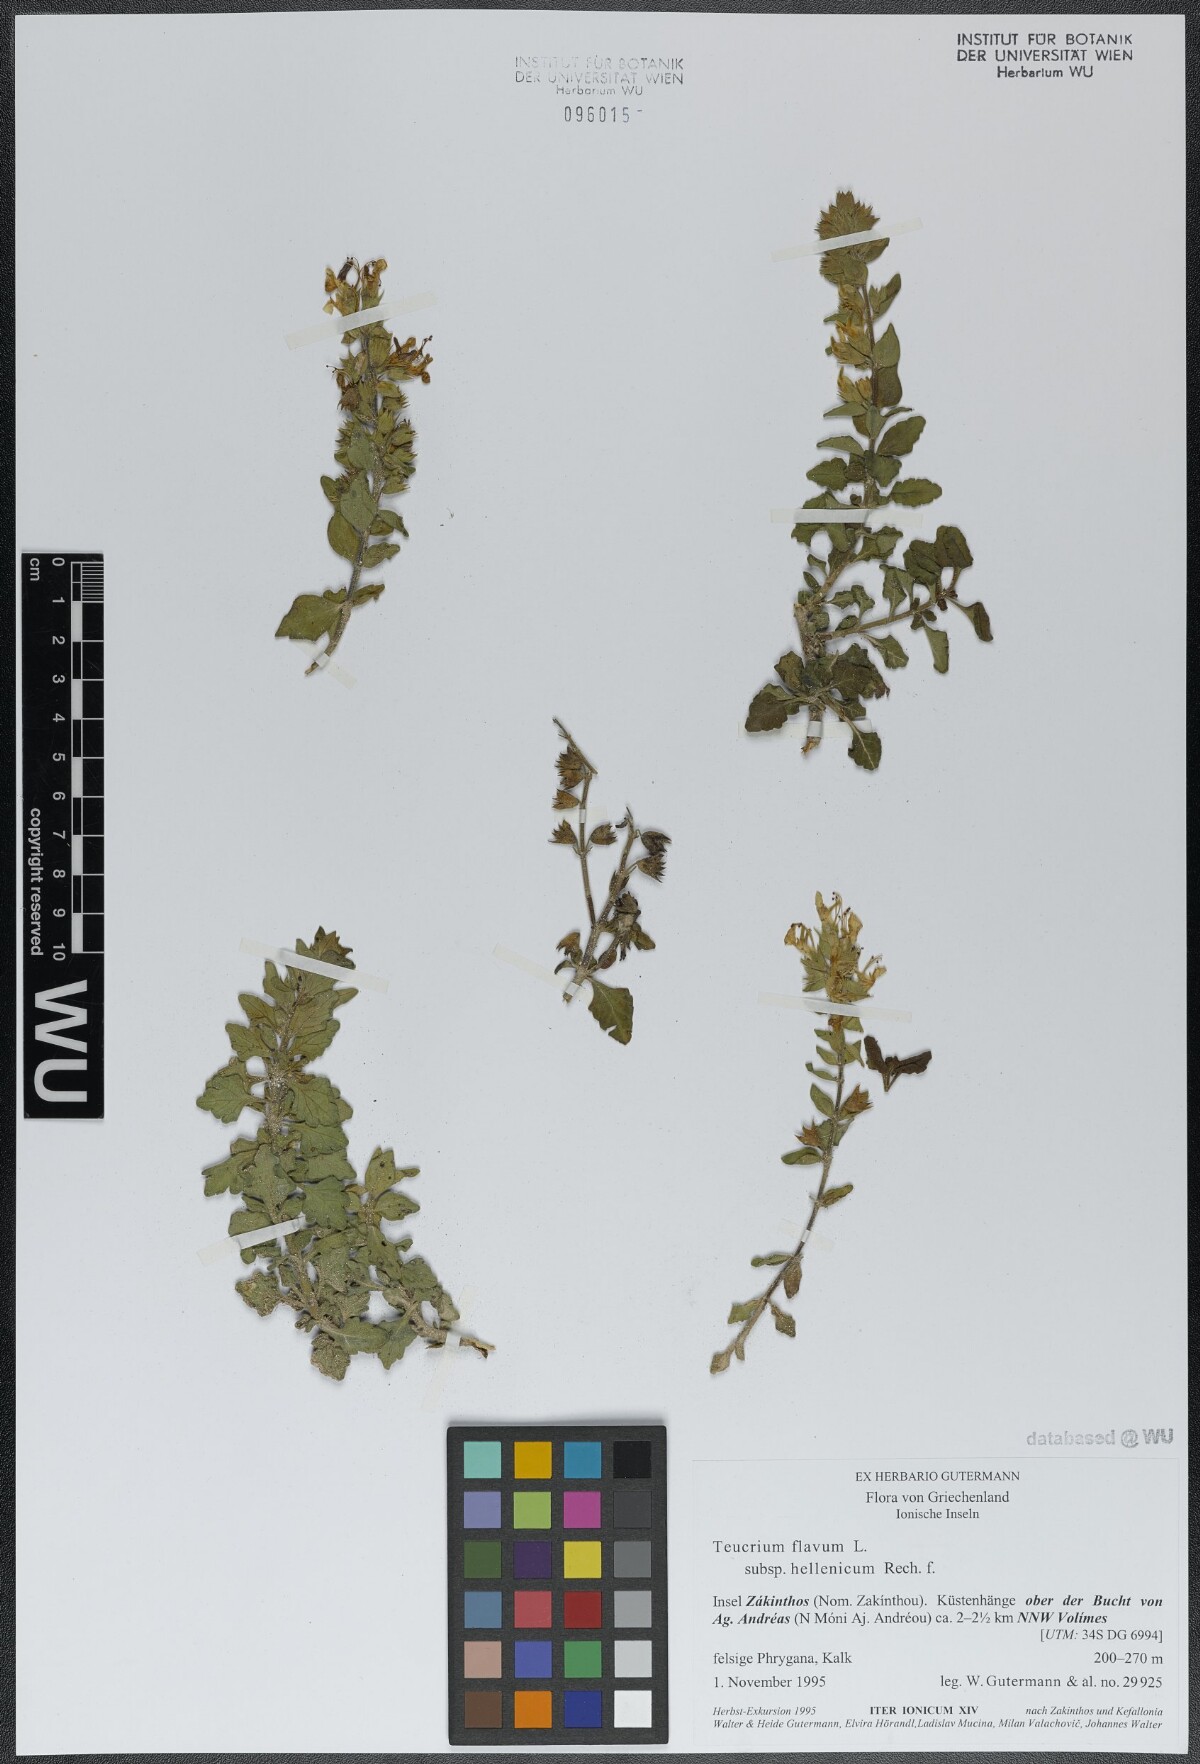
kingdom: Plantae
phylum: Tracheophyta
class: Magnoliopsida
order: Lamiales
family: Lamiaceae
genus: Teucrium
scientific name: Teucrium flavum
